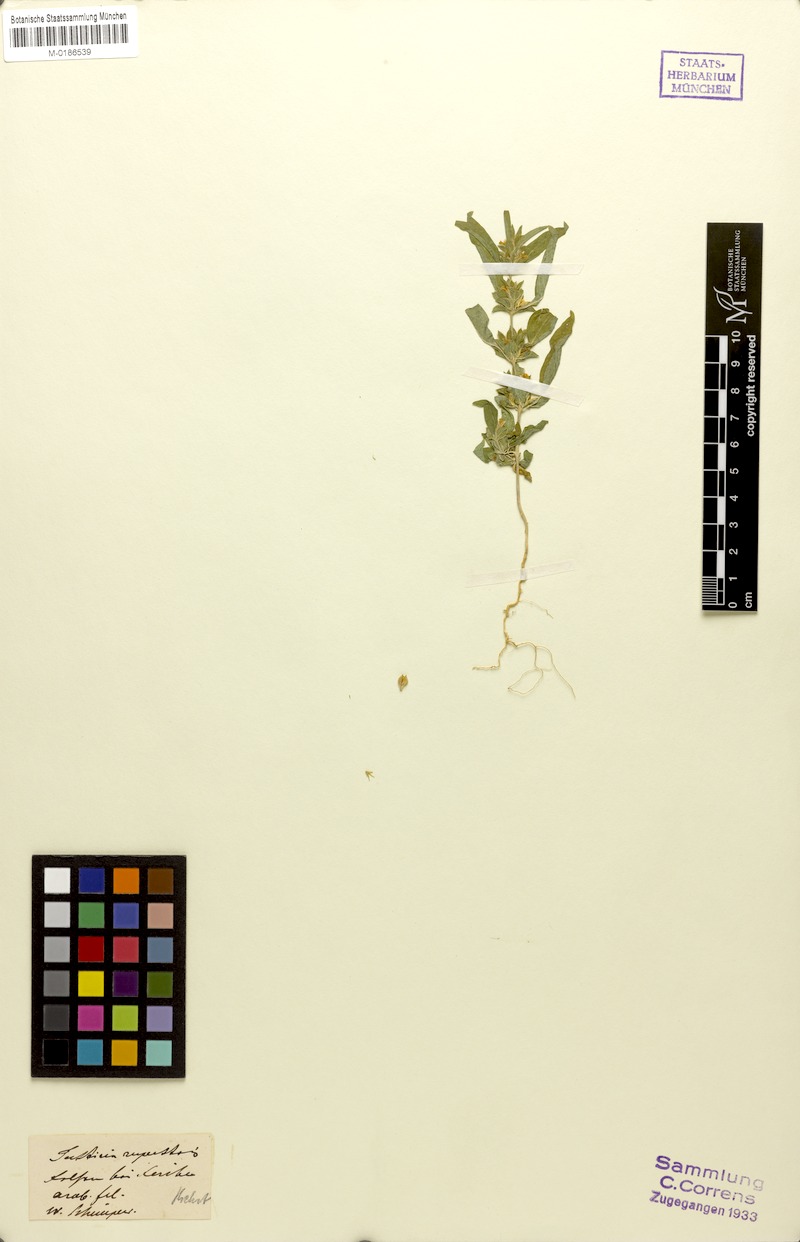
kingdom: Plantae
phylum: Tracheophyta
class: Magnoliopsida
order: Lamiales
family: Acanthaceae
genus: Monechma
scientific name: Monechma debile
